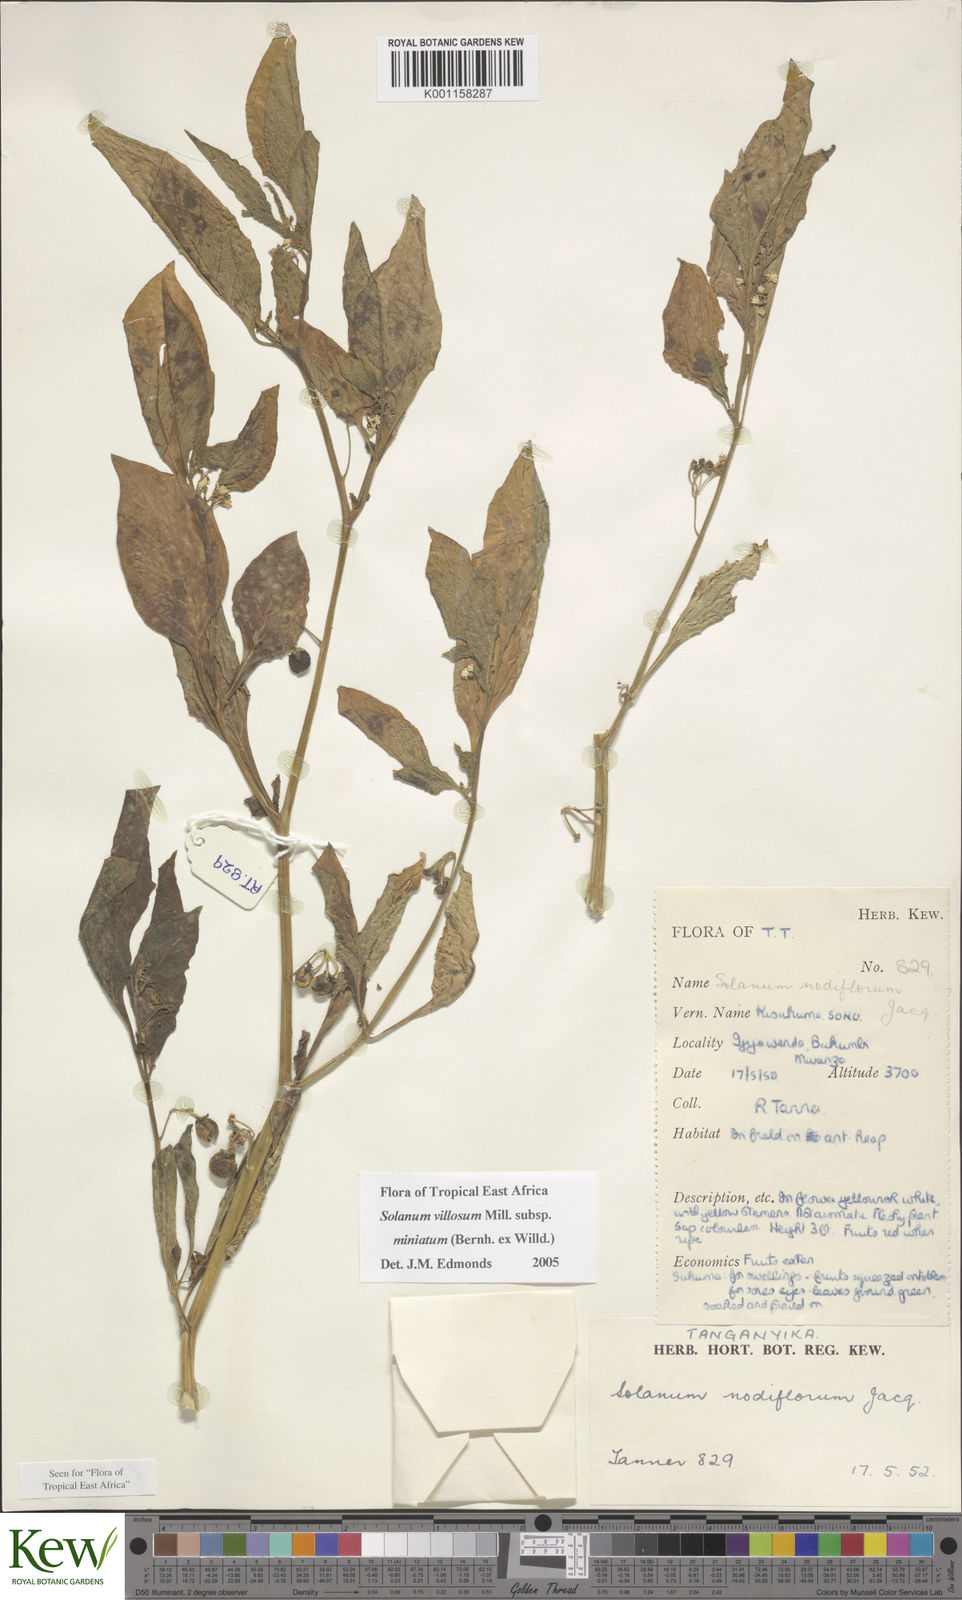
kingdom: Plantae
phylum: Tracheophyta
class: Magnoliopsida
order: Solanales
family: Solanaceae
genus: Solanum
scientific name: Solanum villosum
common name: Red nightshade
